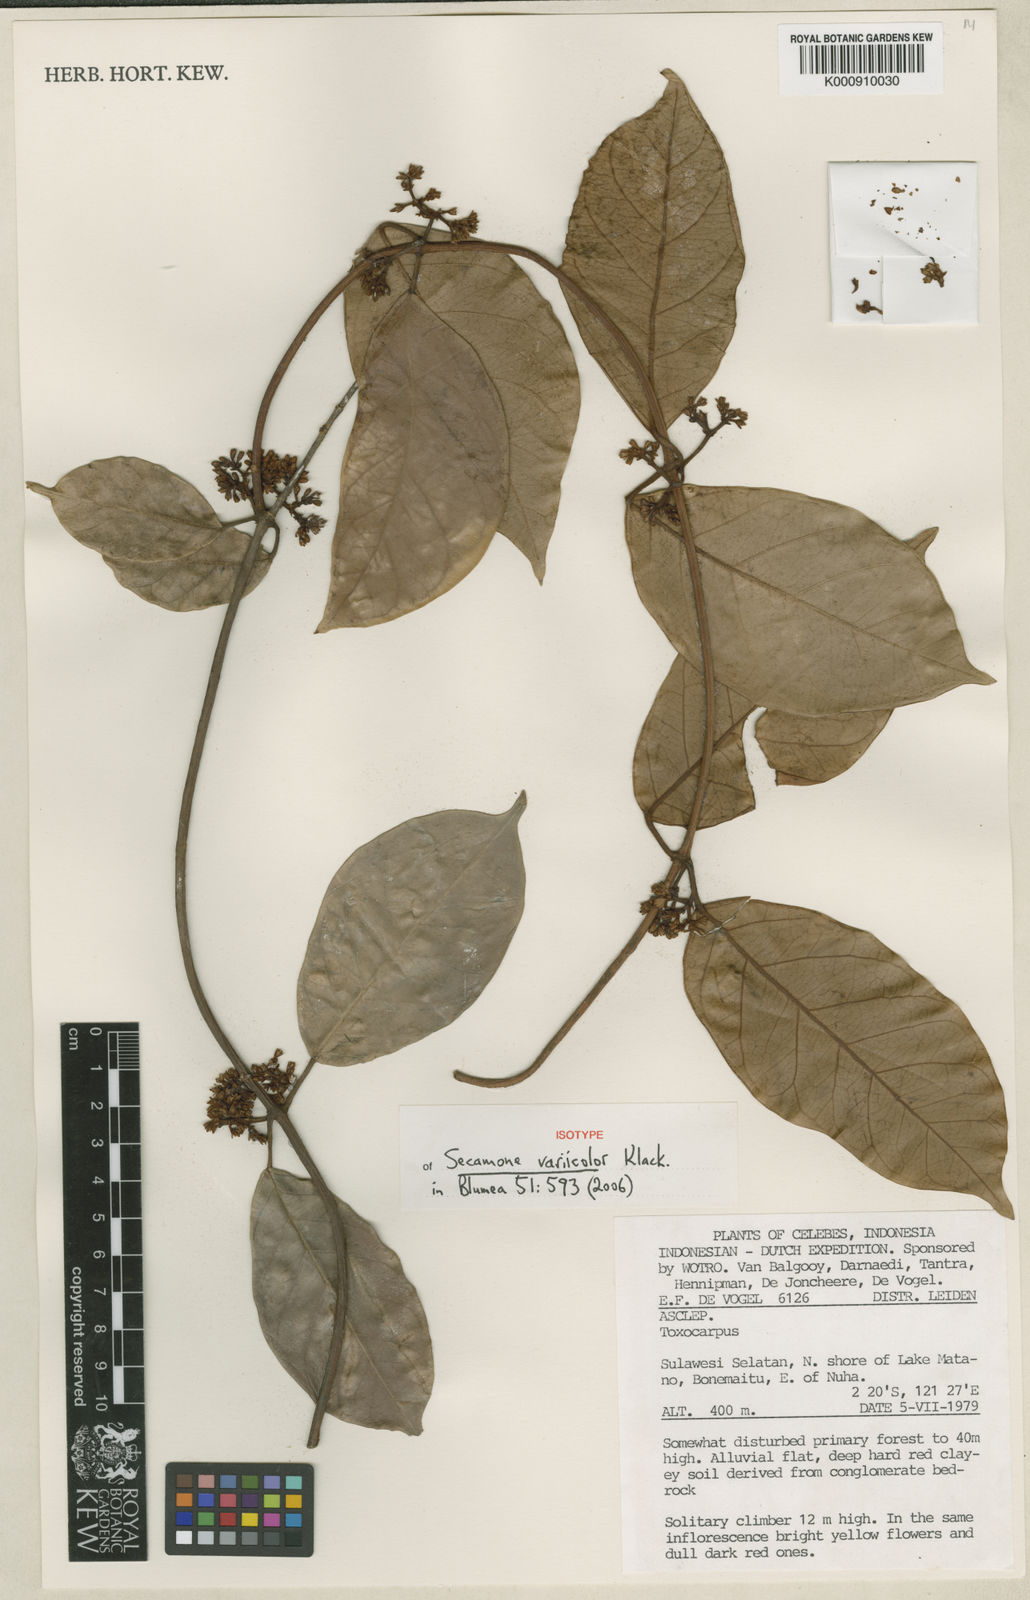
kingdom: Plantae
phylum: Tracheophyta
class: Magnoliopsida
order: Gentianales
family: Apocynaceae
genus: Secamone
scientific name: Secamone variicolor
